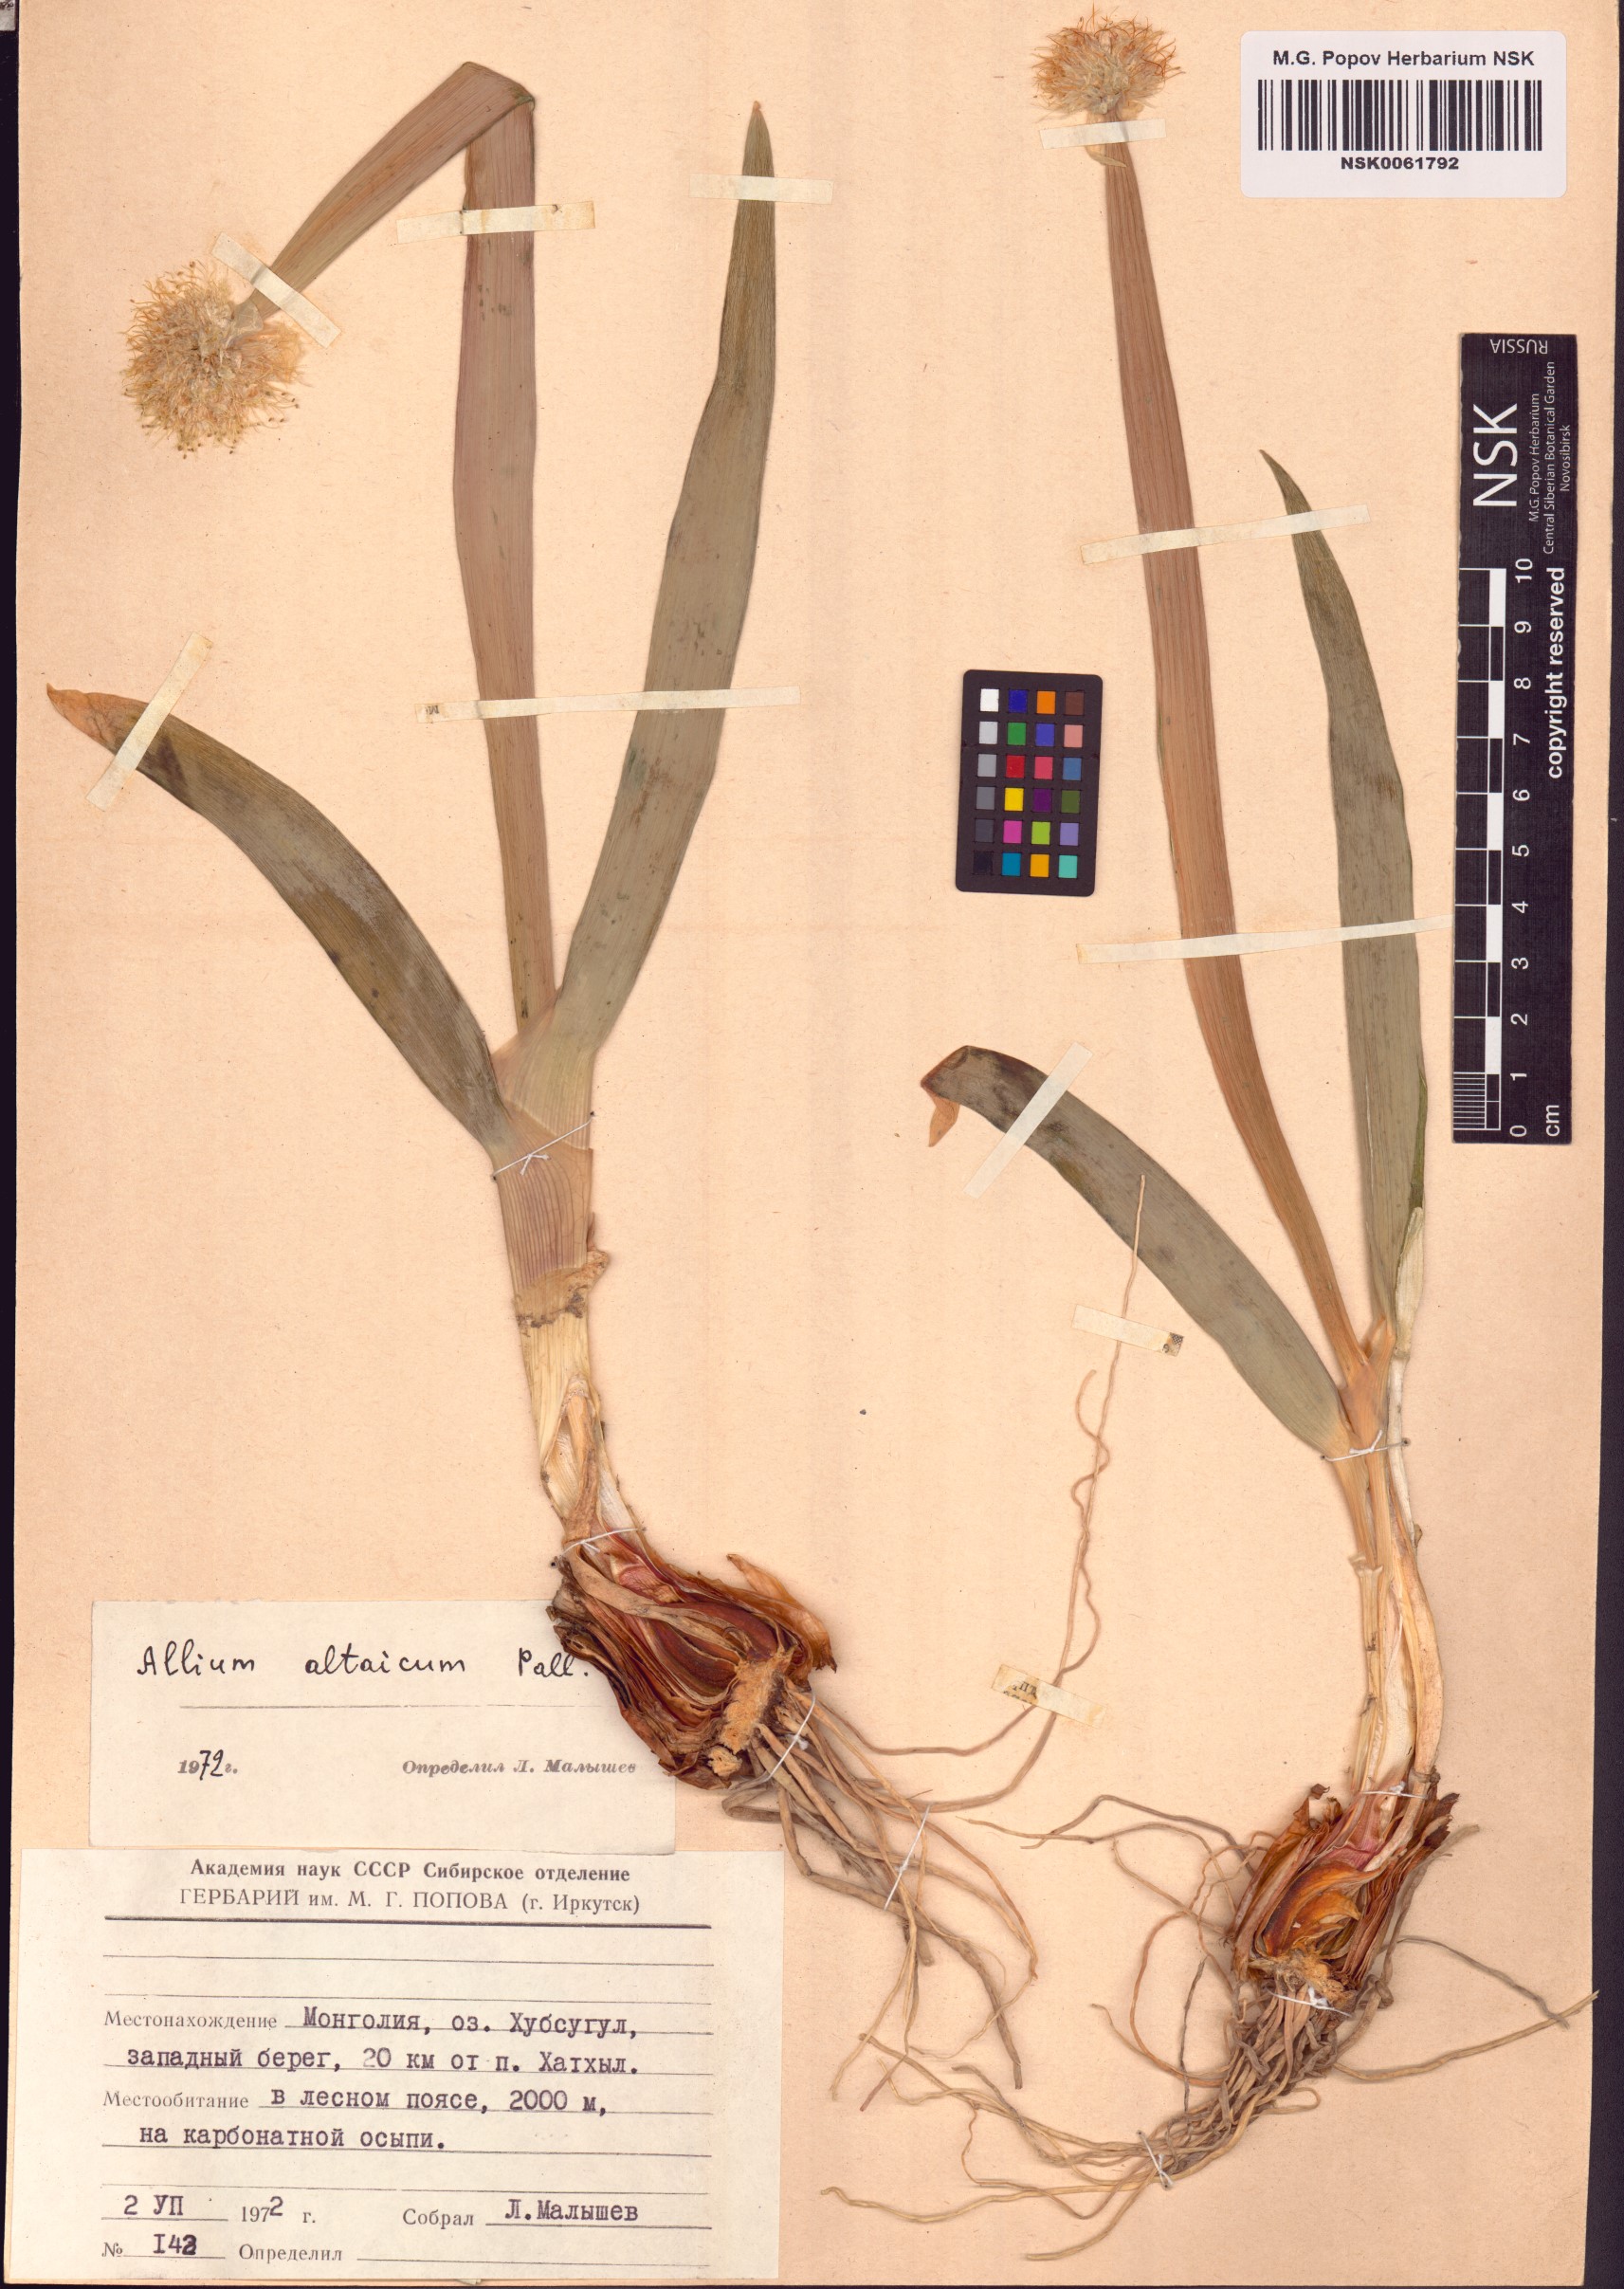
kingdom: Plantae
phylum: Tracheophyta
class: Liliopsida
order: Asparagales
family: Amaryllidaceae
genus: Allium
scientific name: Allium altaicum
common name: Altai onion
